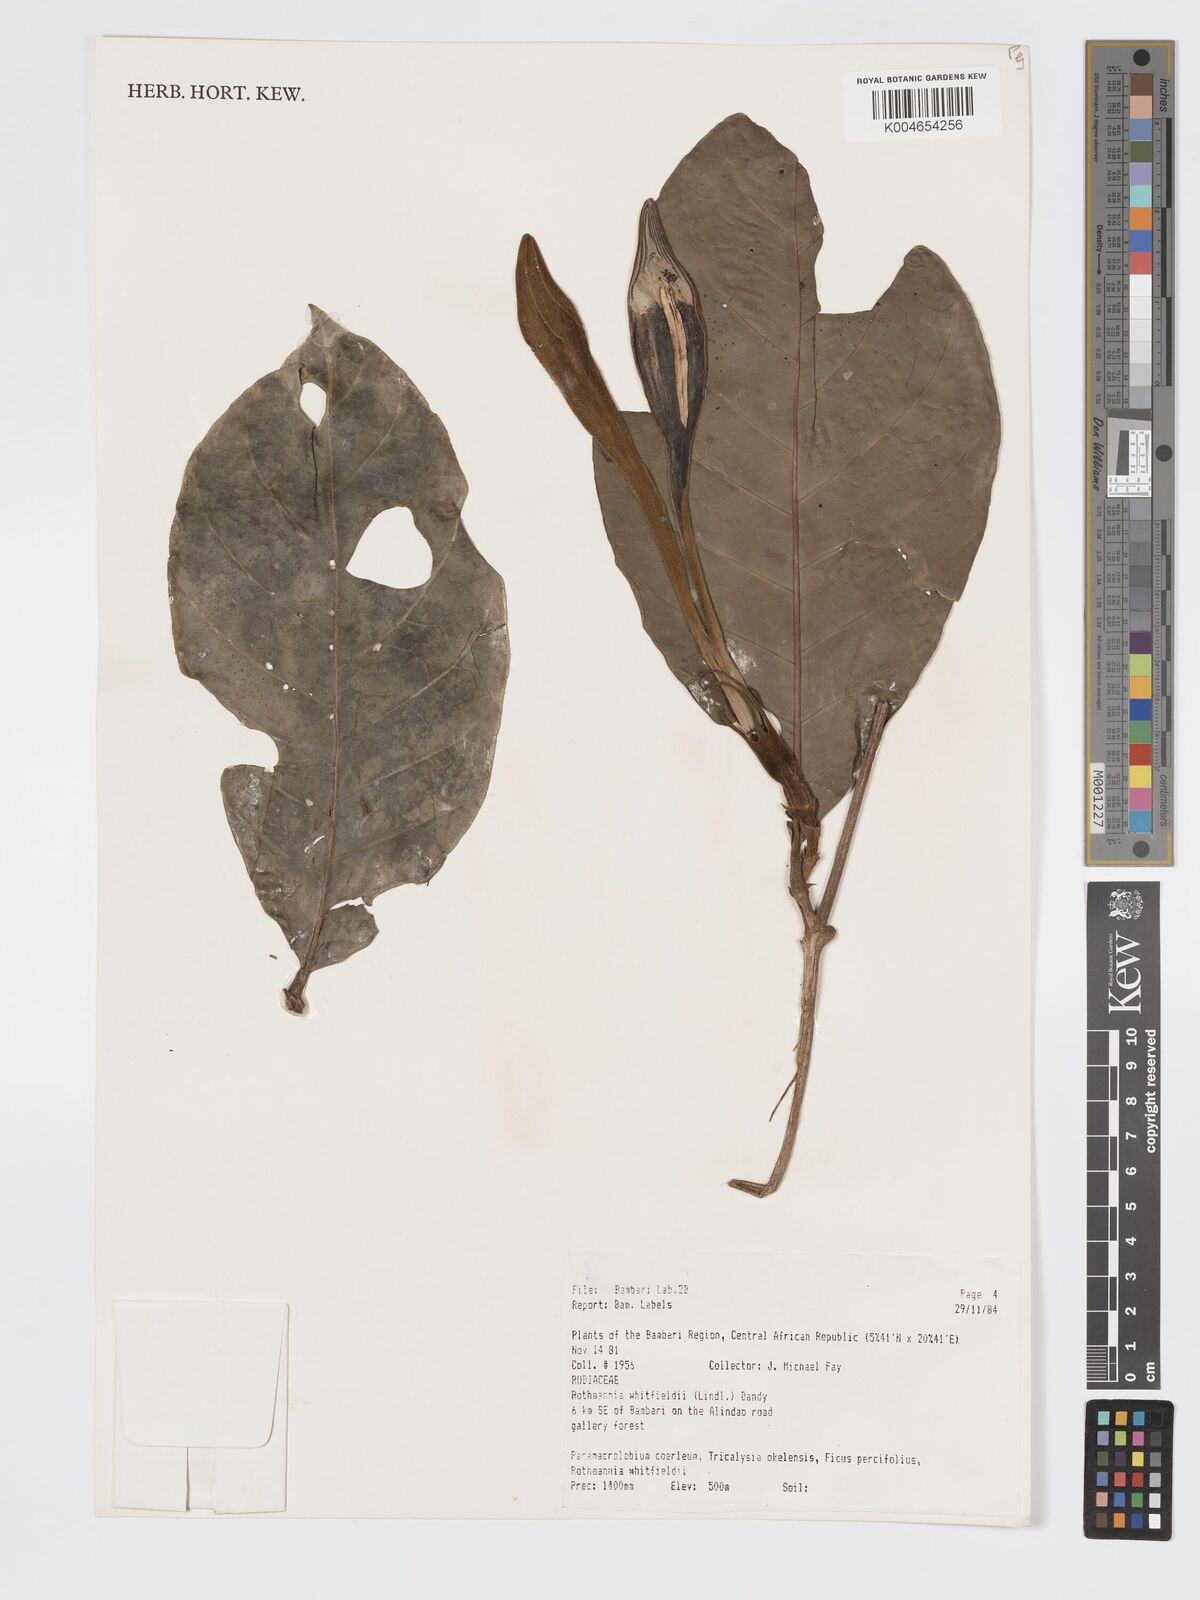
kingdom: Plantae
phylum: Tracheophyta
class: Magnoliopsida
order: Gentianales
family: Rubiaceae
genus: Rothmannia
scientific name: Rothmannia whitfieldii
